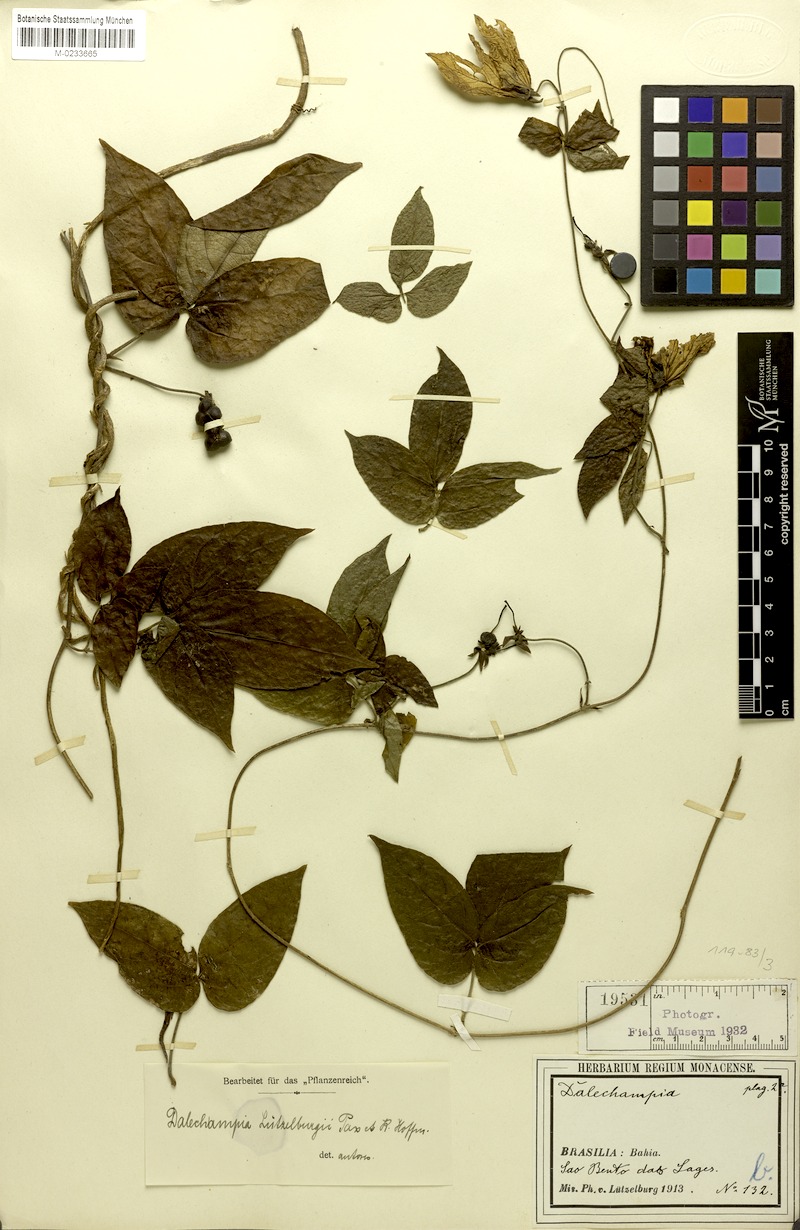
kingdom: Plantae
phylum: Tracheophyta
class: Magnoliopsida
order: Malpighiales
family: Euphorbiaceae
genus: Dalechampia
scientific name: Dalechampia luetzelburgii
